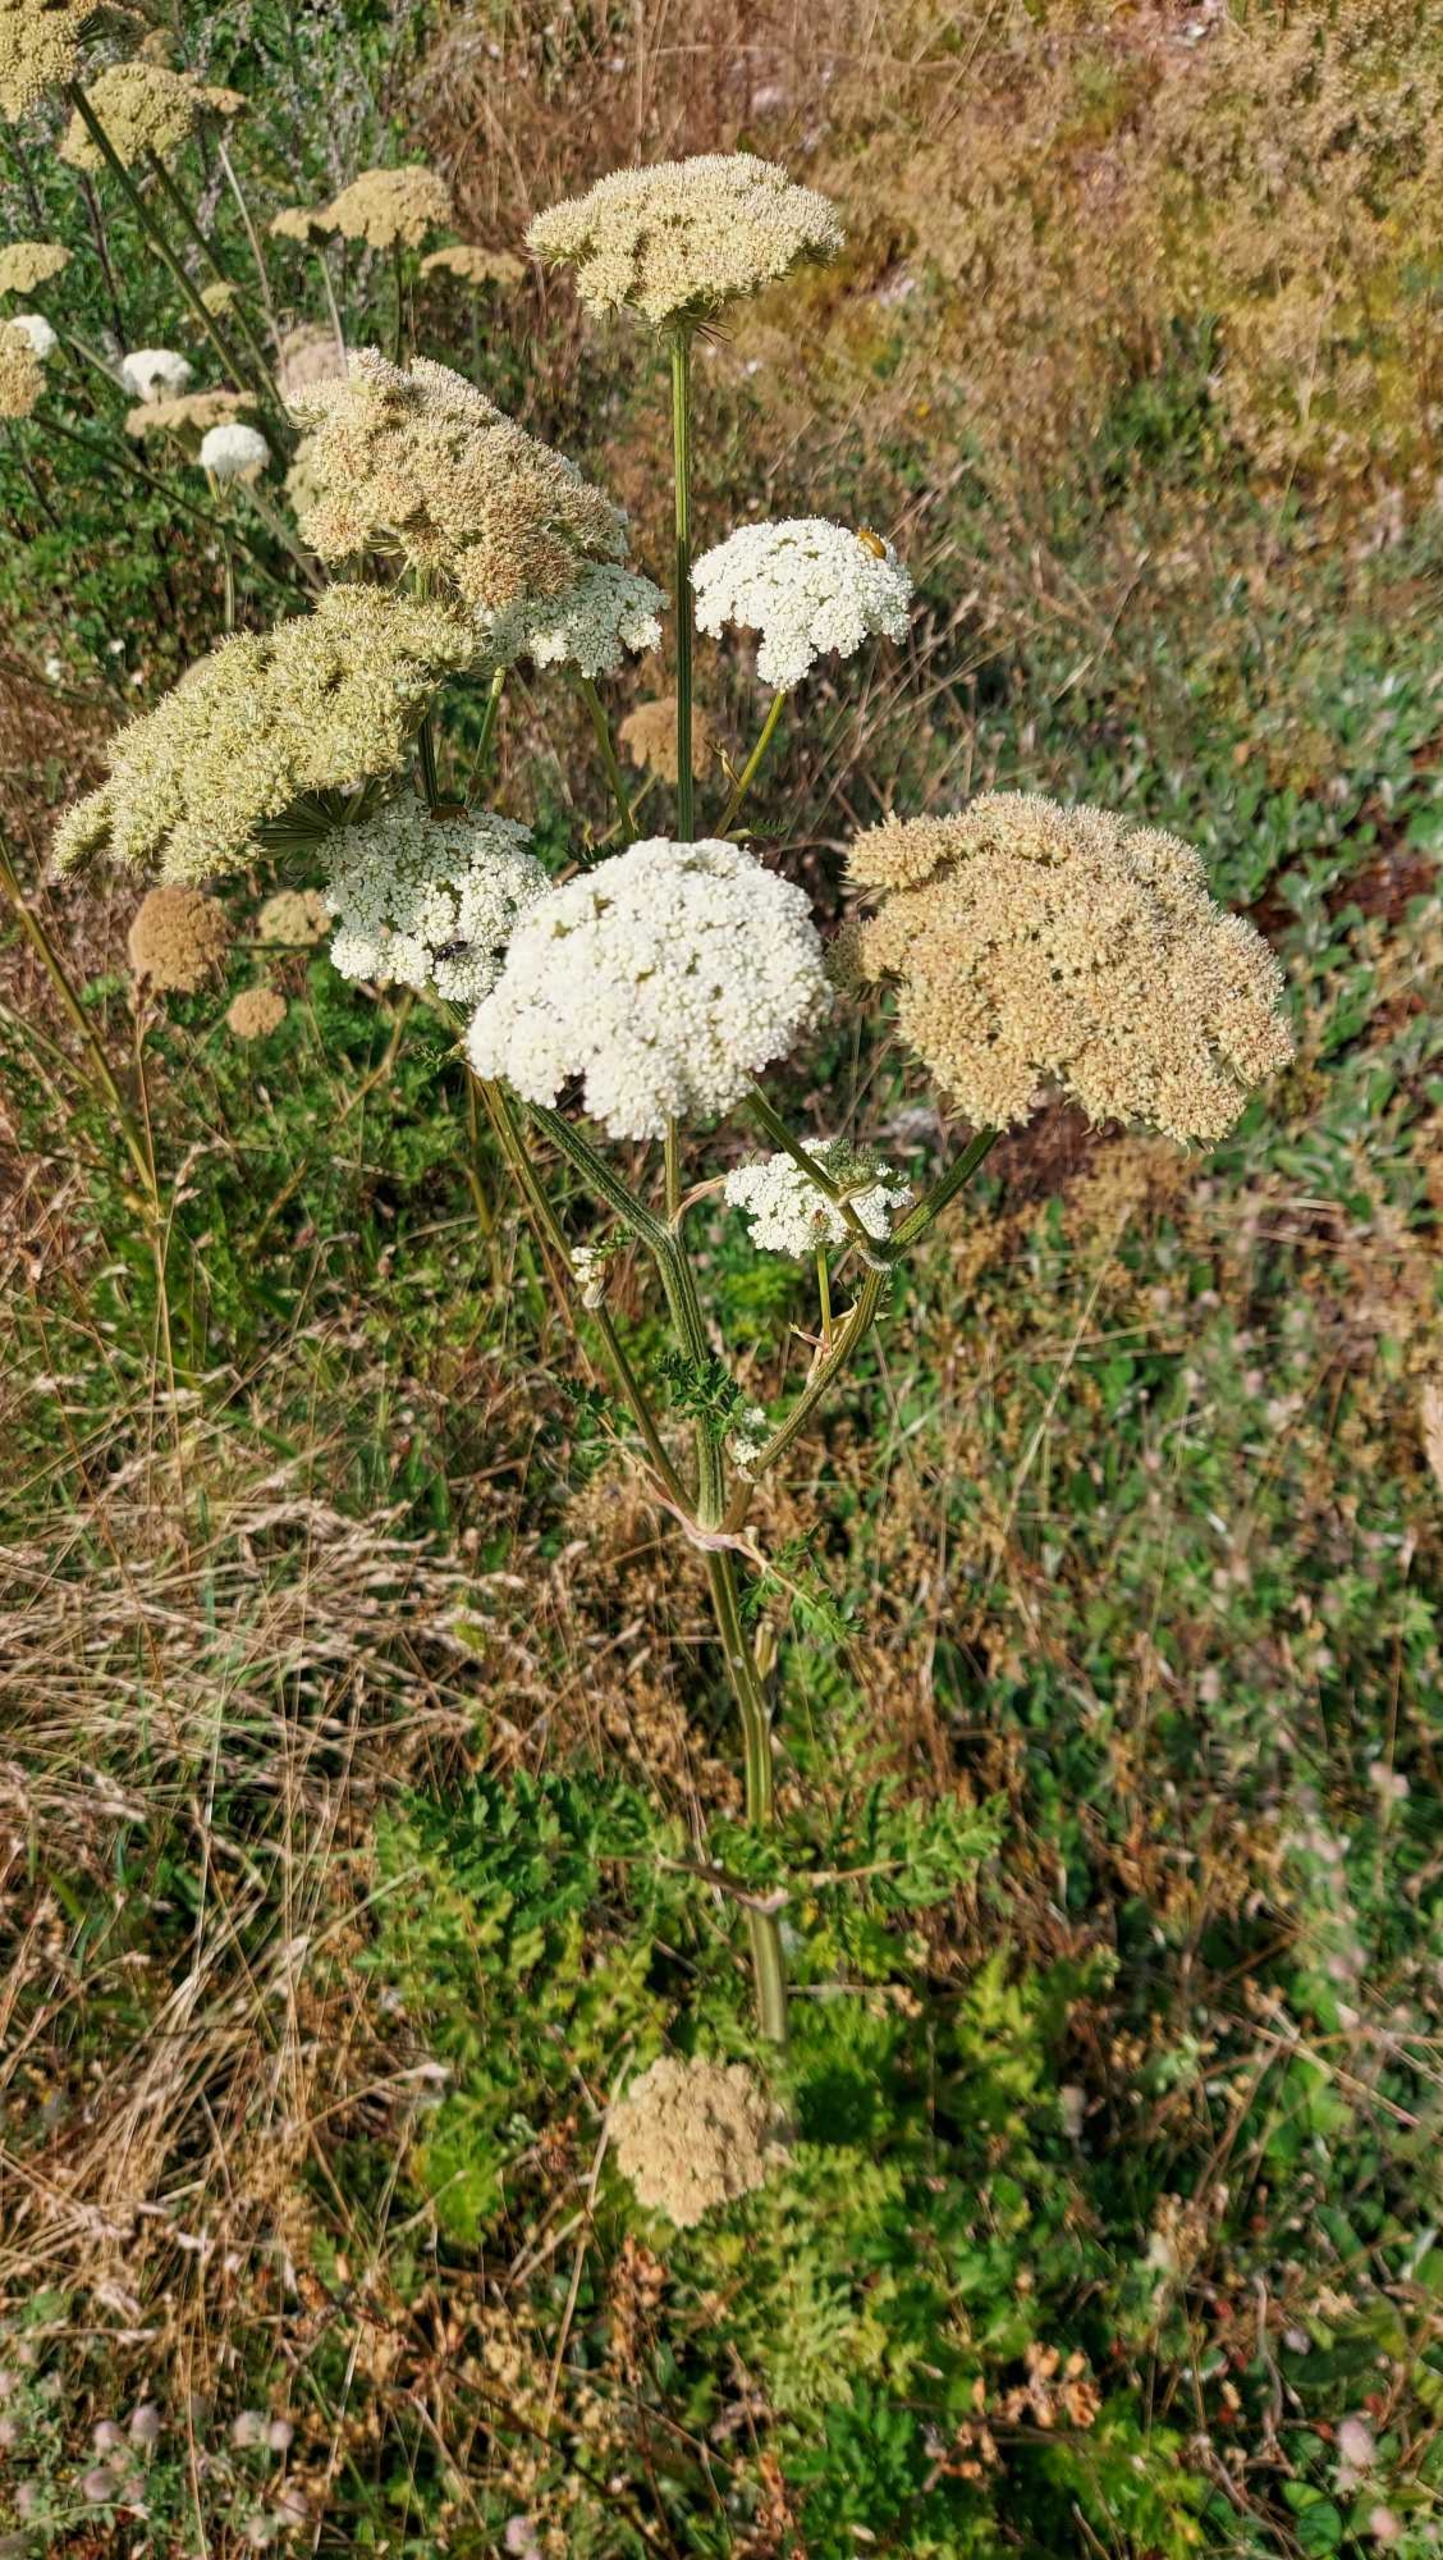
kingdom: Plantae
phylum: Tracheophyta
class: Magnoliopsida
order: Apiales
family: Apiaceae
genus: Seseli
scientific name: Seseli libanotis
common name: Hjorterod
